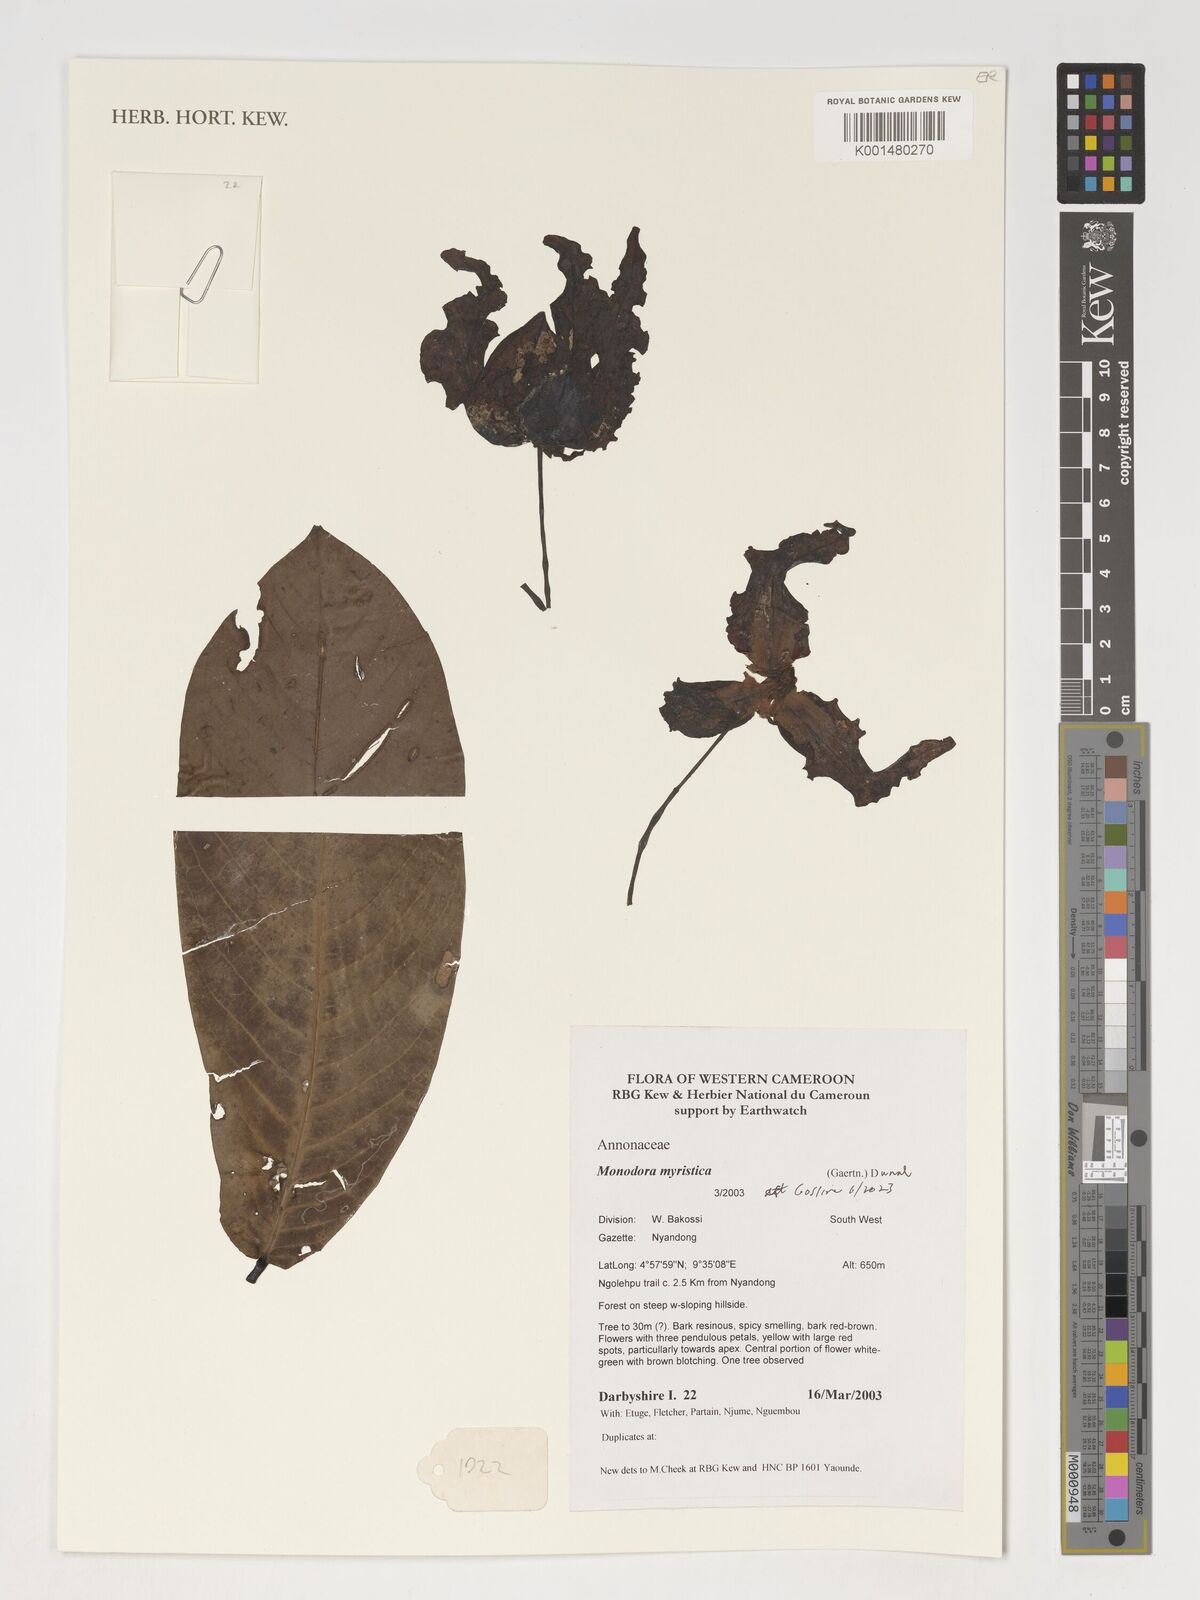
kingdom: Plantae
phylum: Tracheophyta
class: Magnoliopsida
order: Magnoliales
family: Annonaceae
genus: Monodora
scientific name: Monodora myristica
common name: African nutmeg
